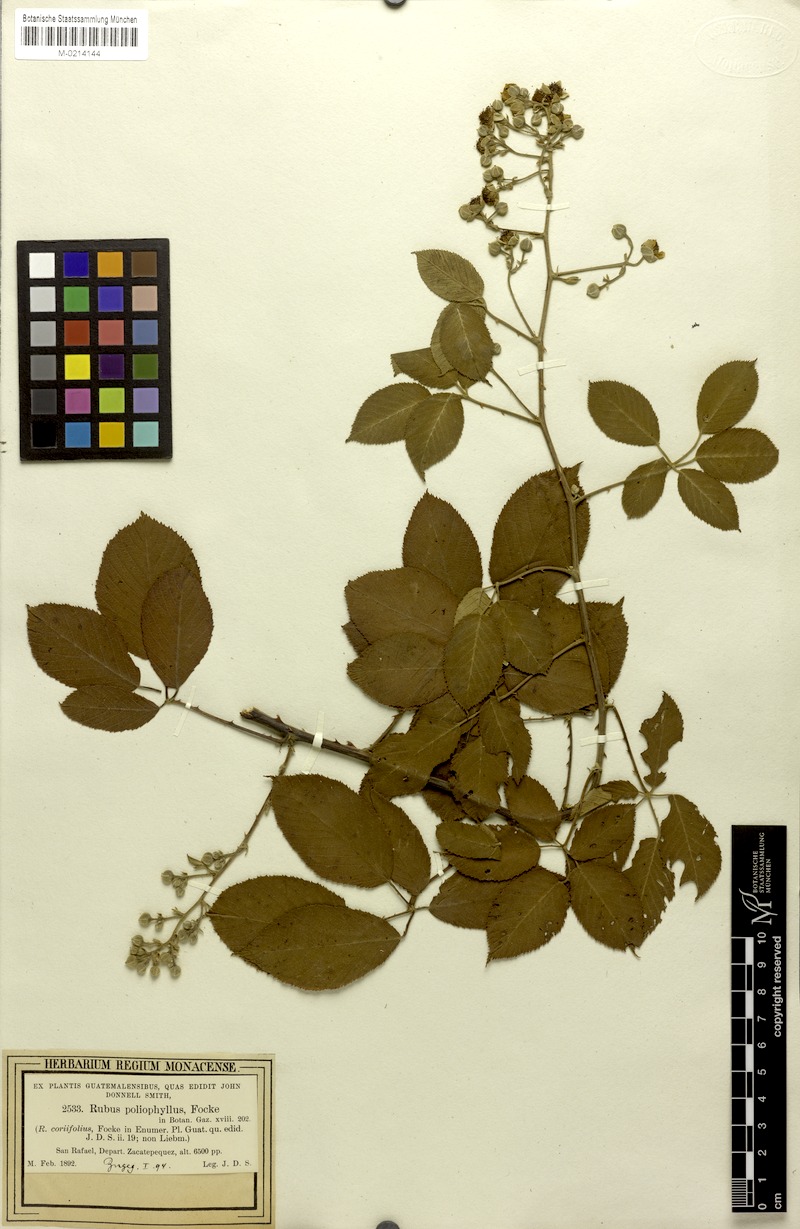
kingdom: Plantae
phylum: Tracheophyta
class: Magnoliopsida
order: Rosales
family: Rosaceae
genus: Rubus
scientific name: Rubus miser
